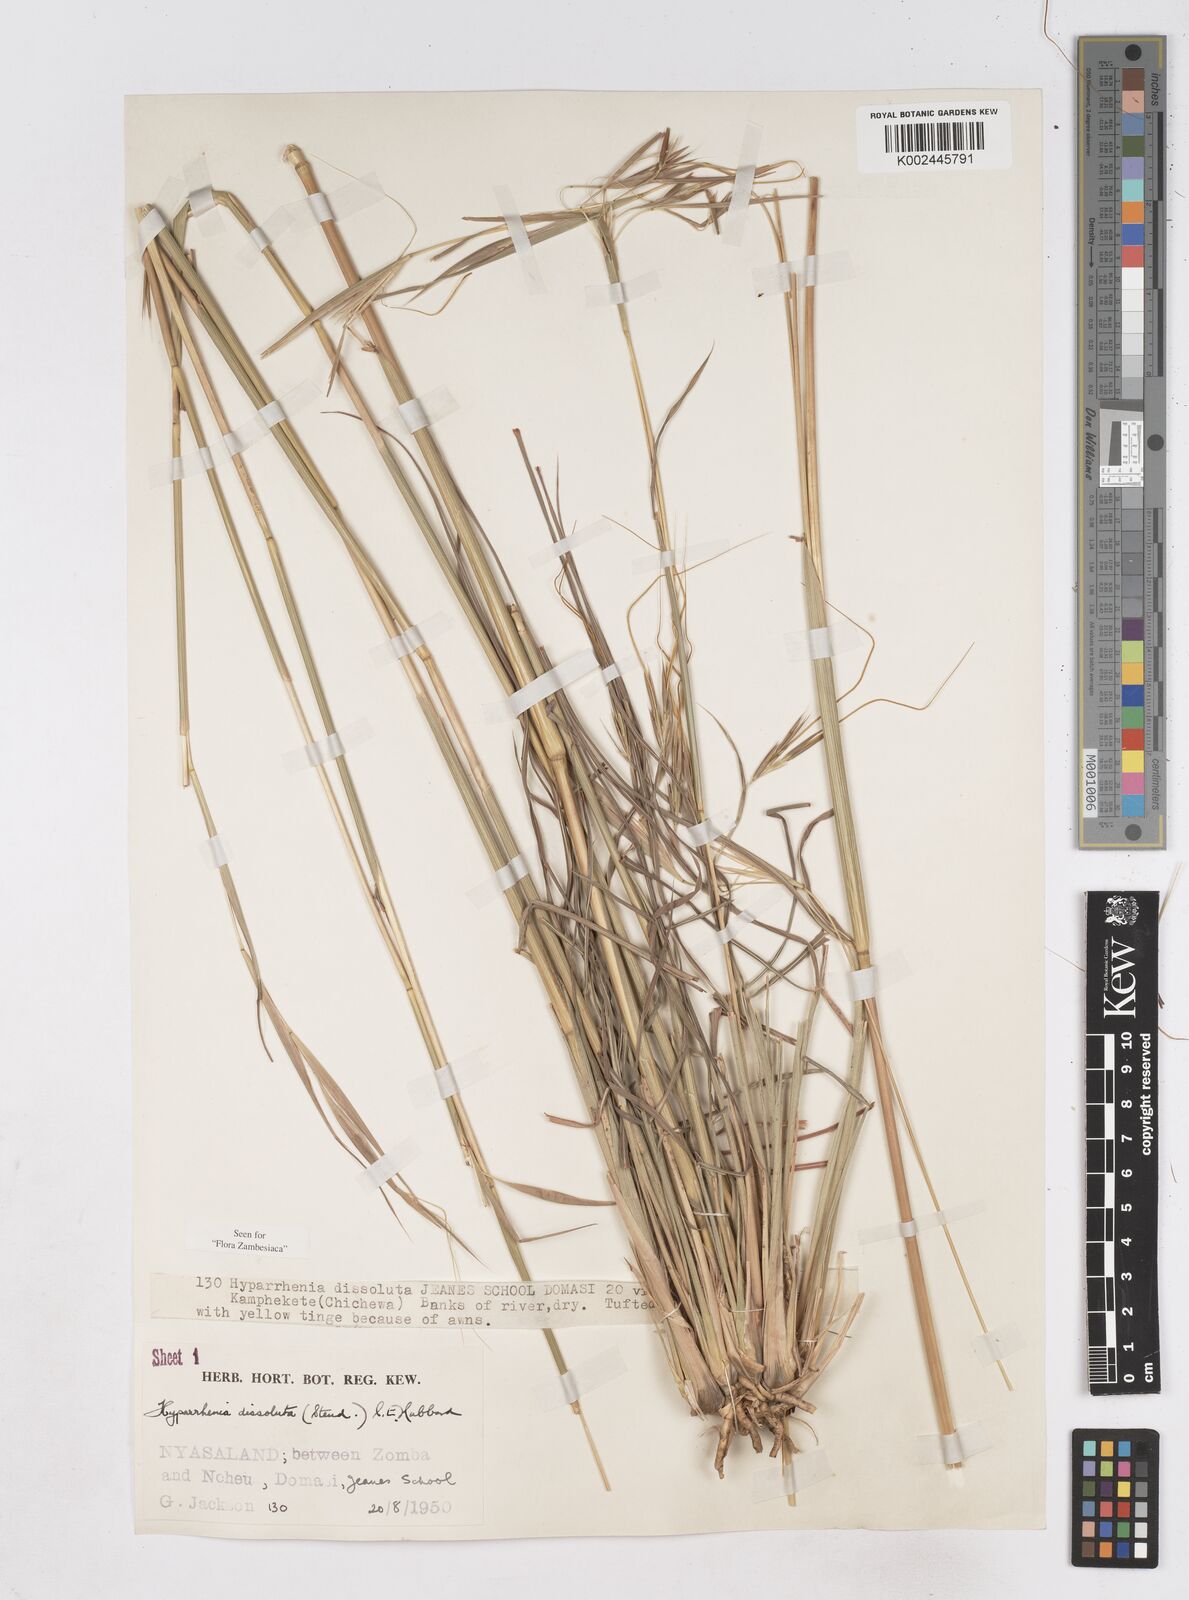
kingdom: Plantae
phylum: Tracheophyta
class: Liliopsida
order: Poales
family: Poaceae
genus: Hyperthelia
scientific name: Hyperthelia dissoluta
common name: Yellow thatching grass
